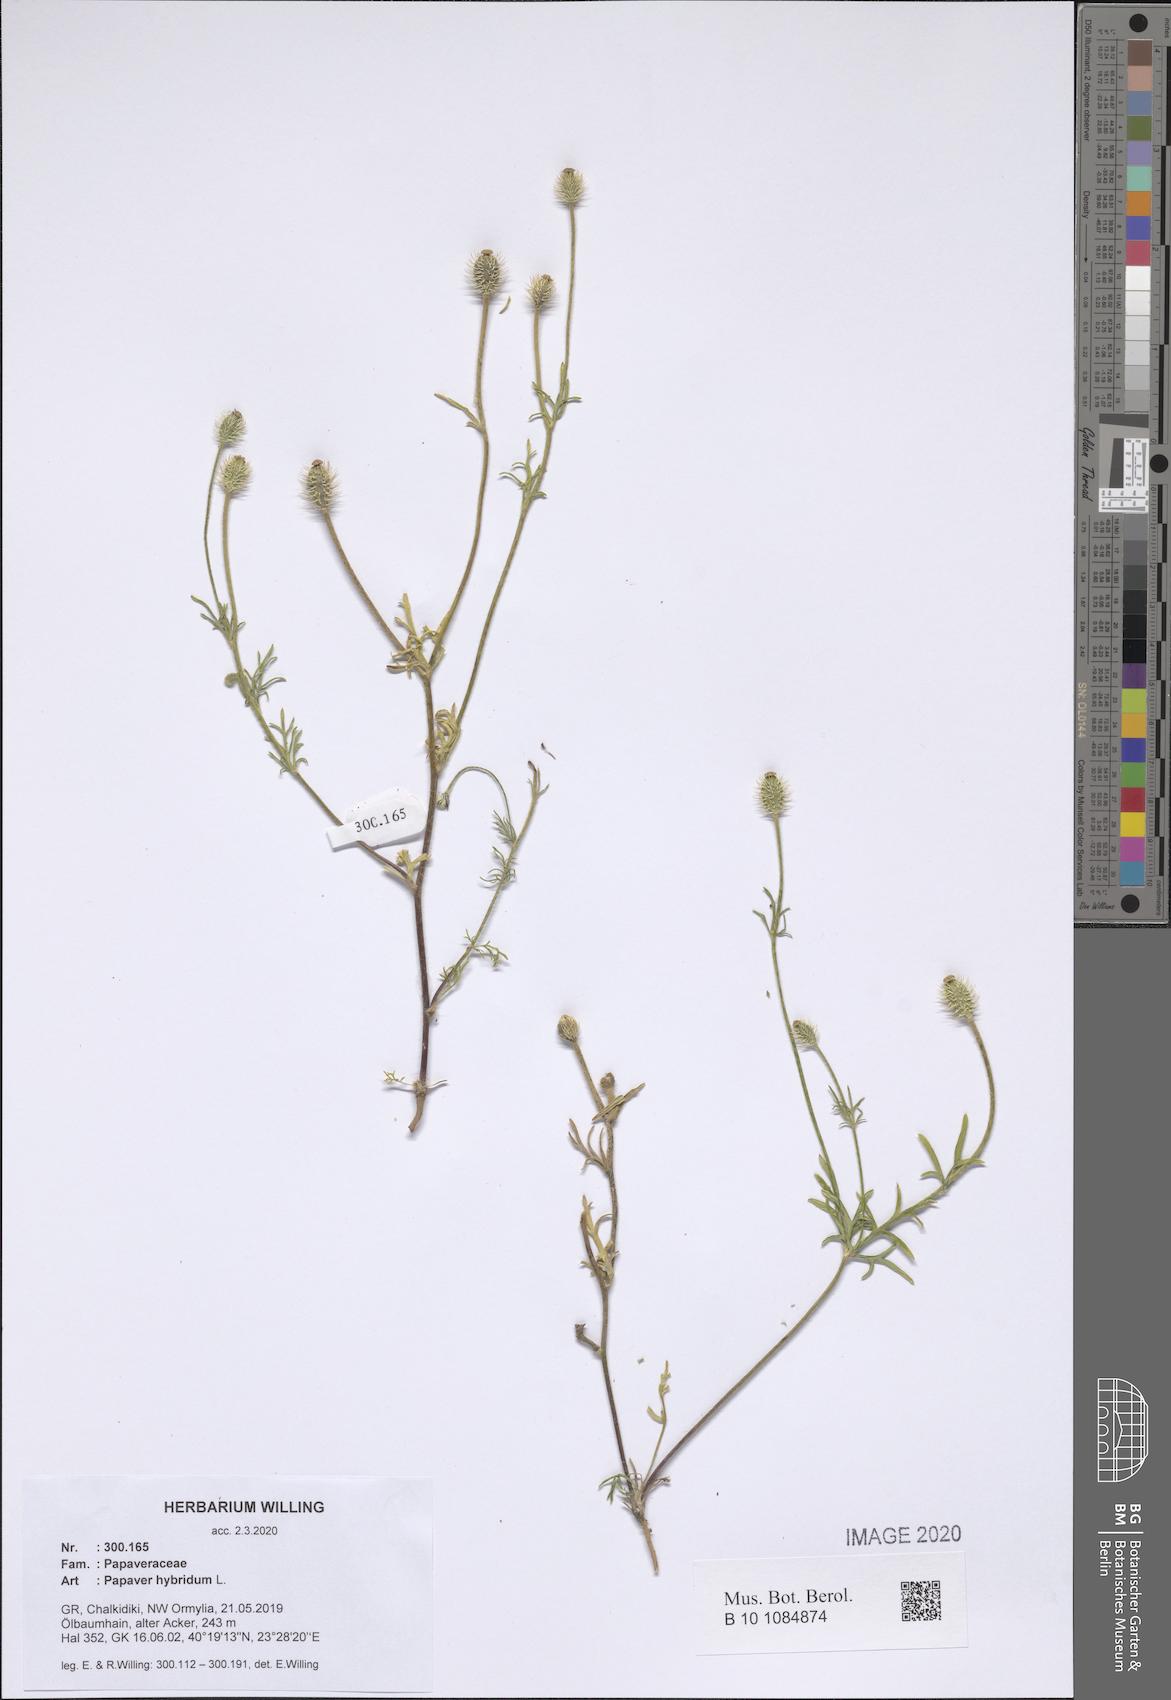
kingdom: Plantae
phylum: Tracheophyta
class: Magnoliopsida
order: Ranunculales
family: Papaveraceae
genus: Roemeria
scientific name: Roemeria hispida
